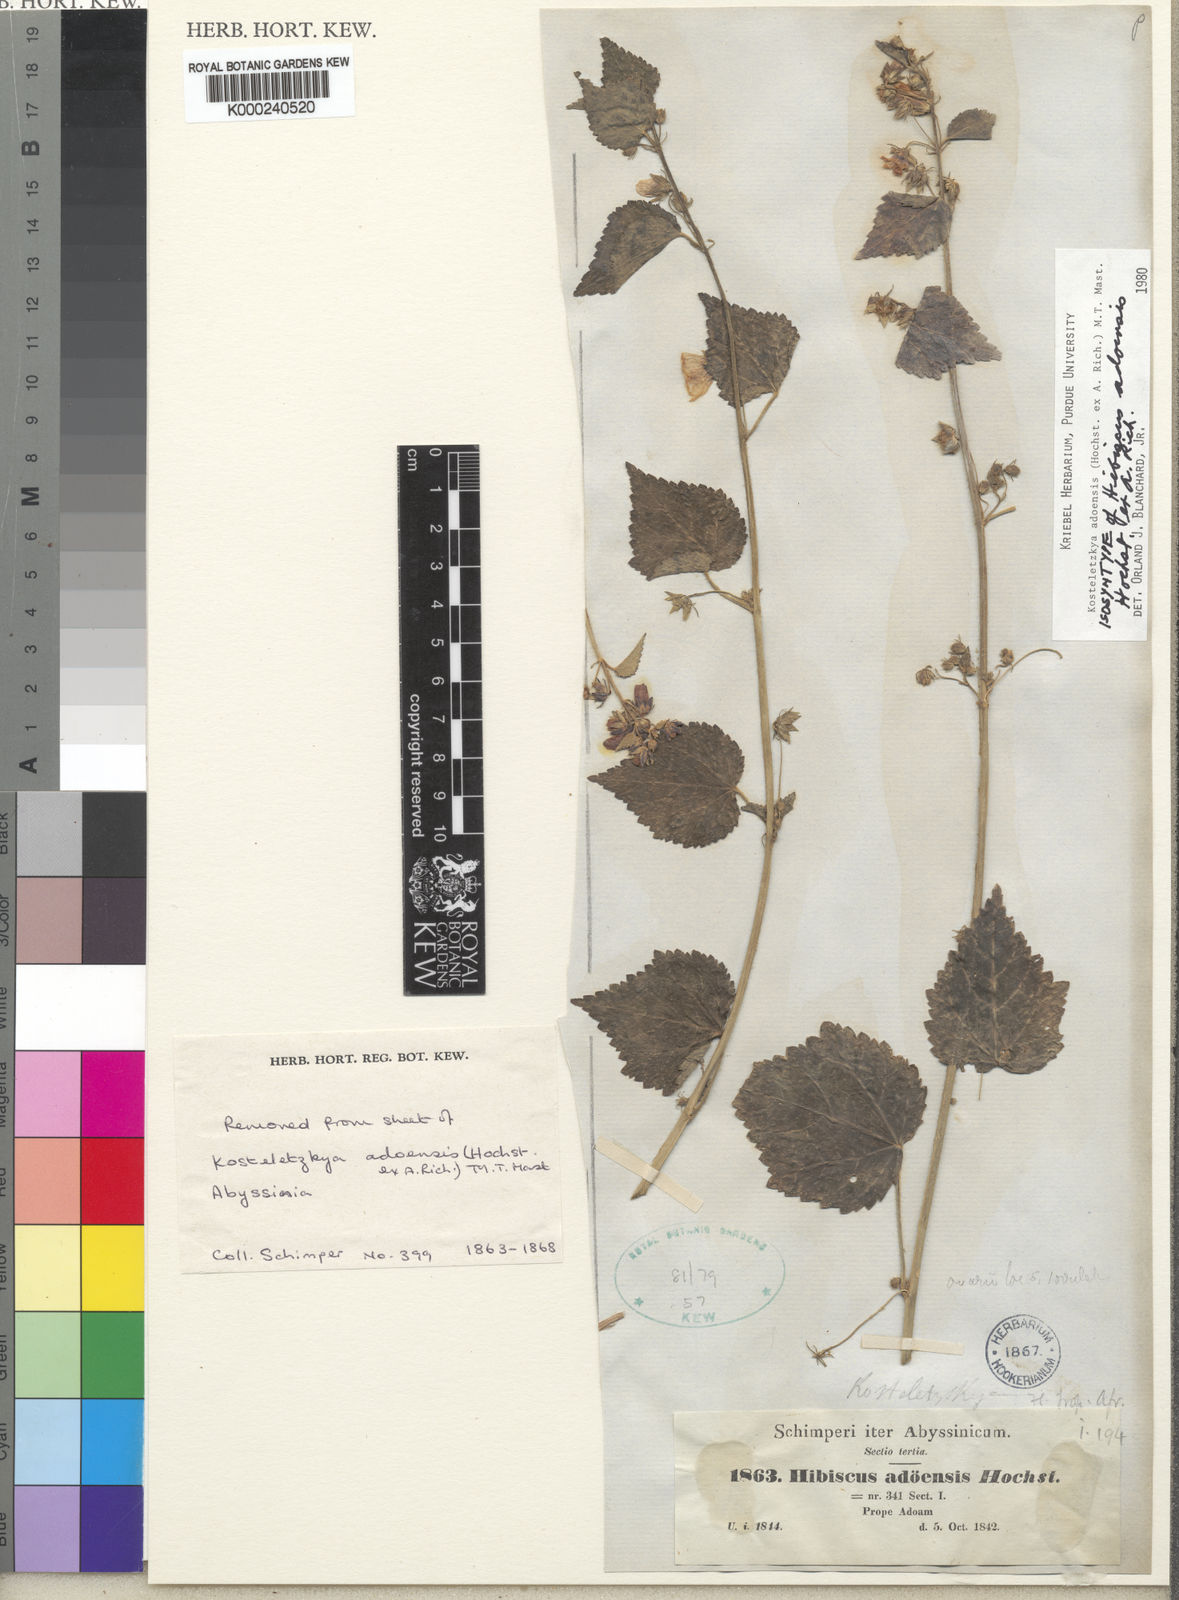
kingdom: Plantae
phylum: Tracheophyta
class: Magnoliopsida
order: Malvales
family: Malvaceae
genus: Kosteletzkya
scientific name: Kosteletzkya adoensis
